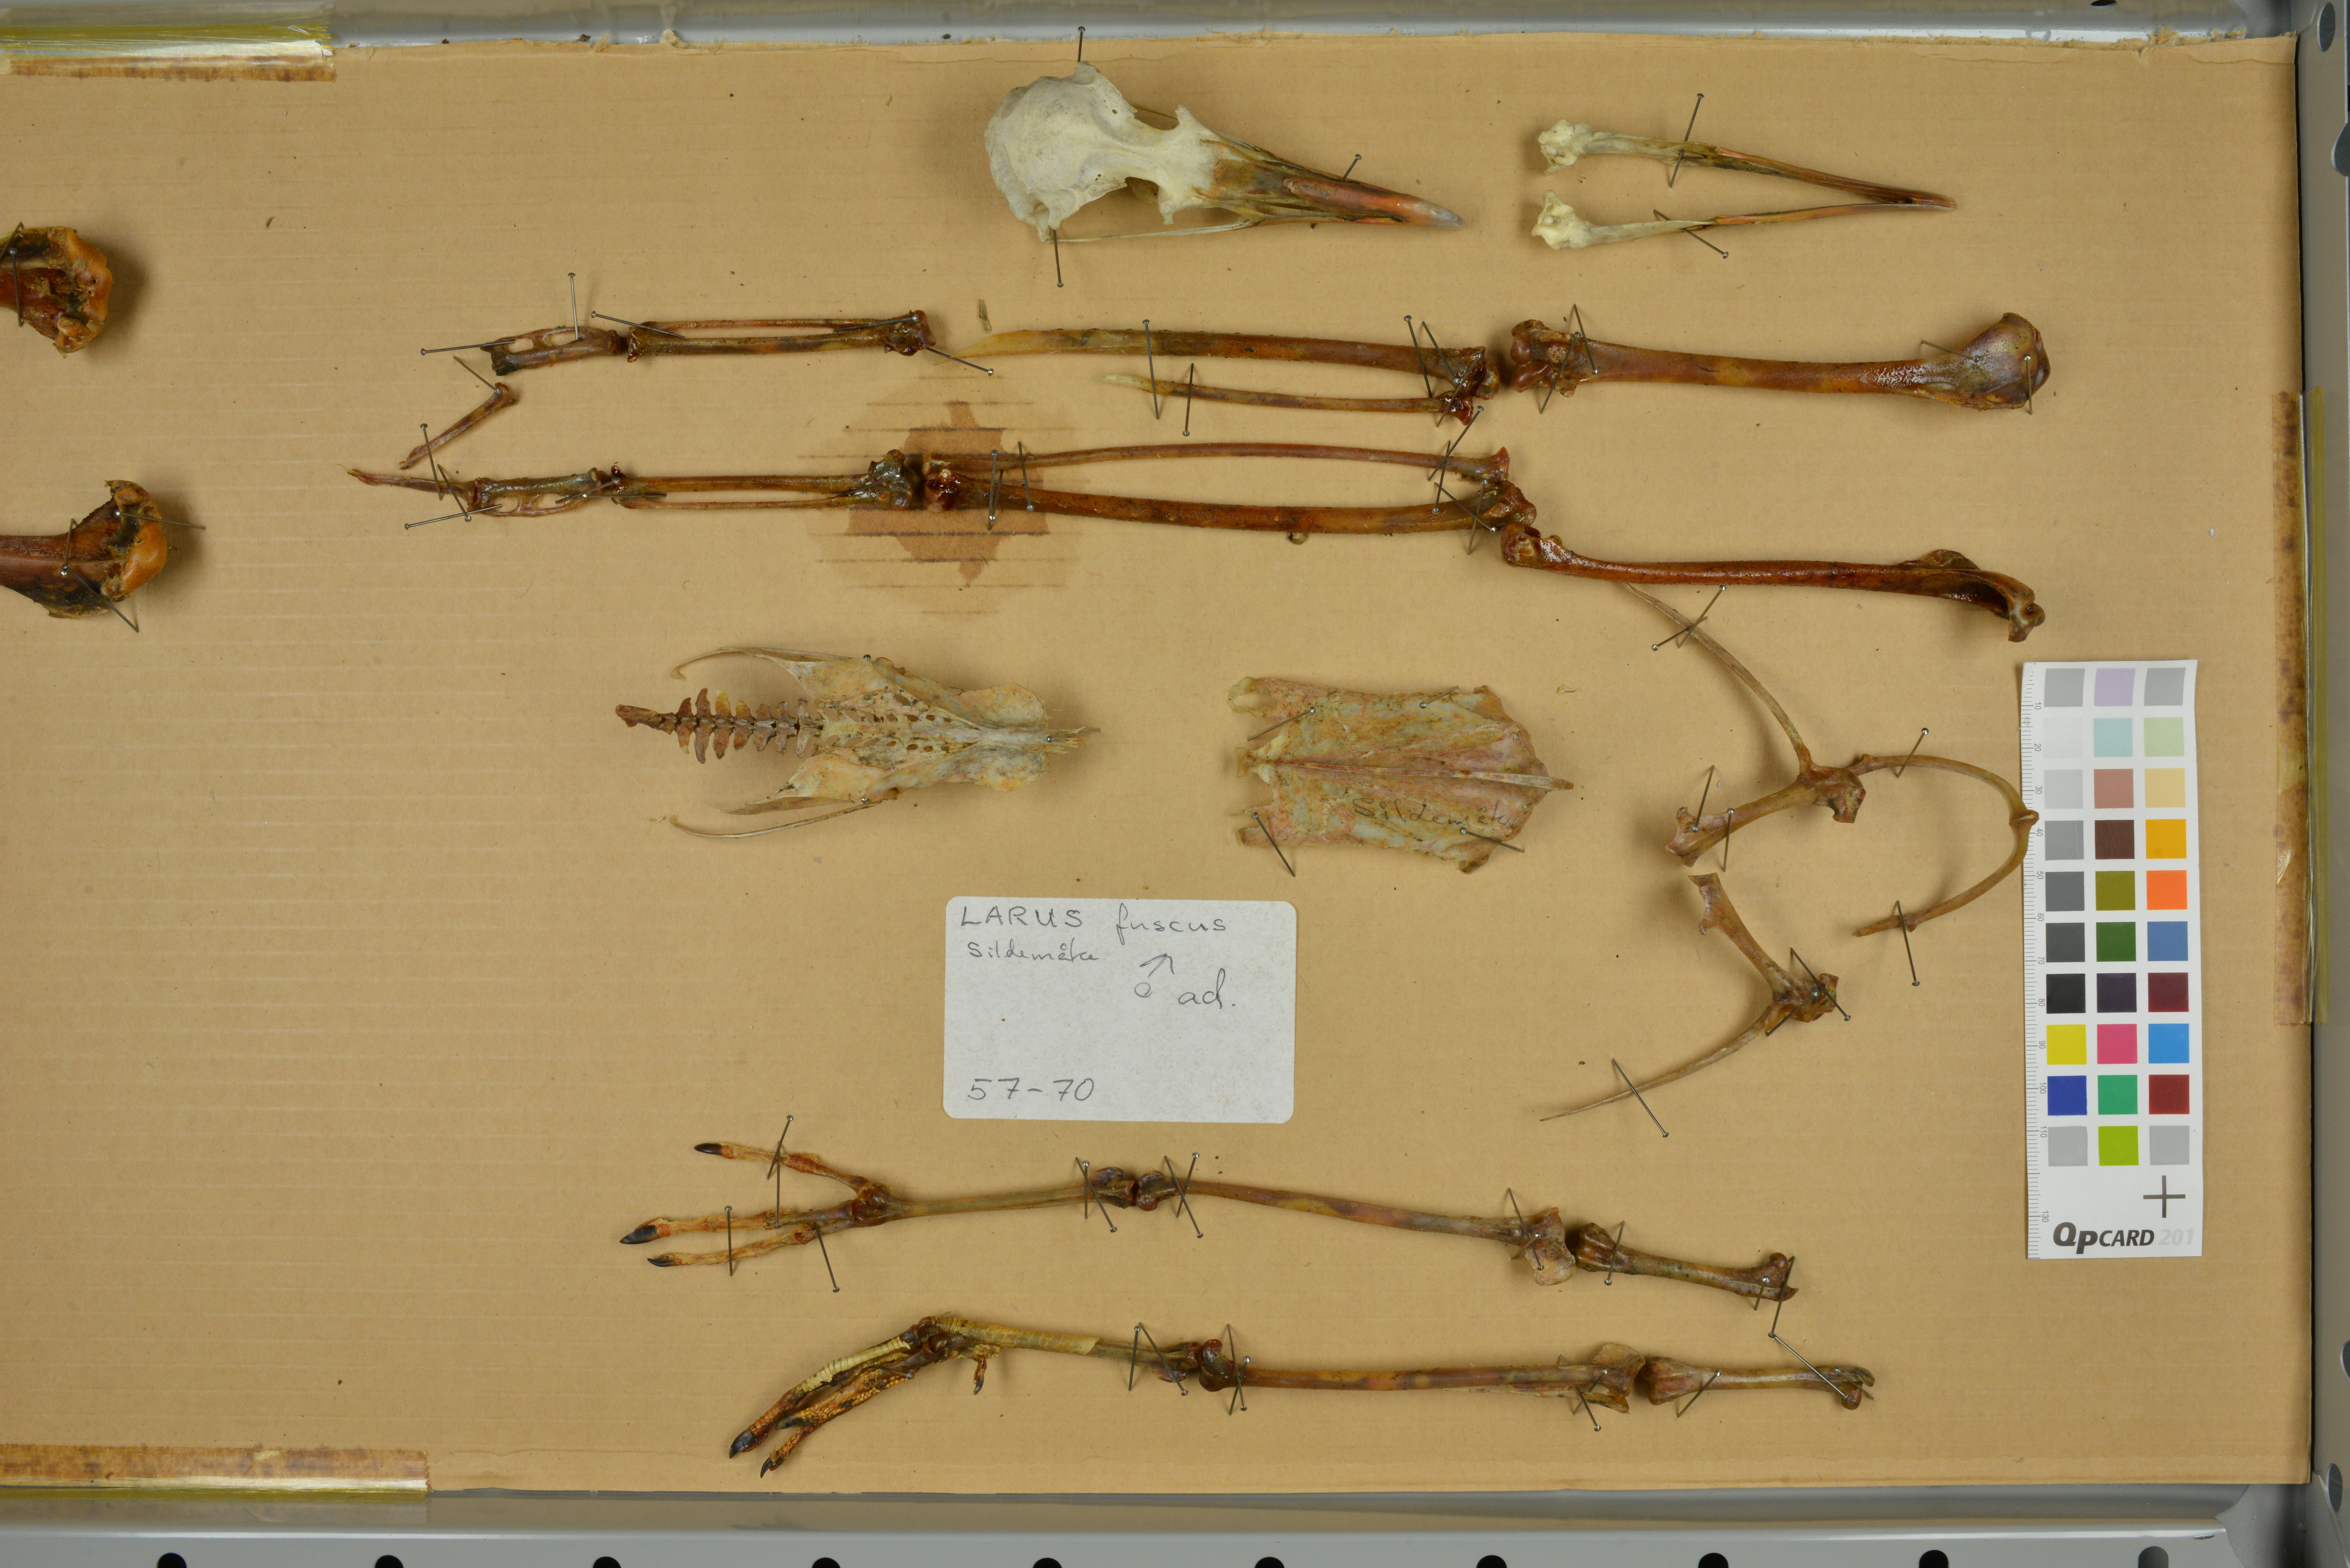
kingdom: Animalia
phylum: Chordata
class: Aves
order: Charadriiformes
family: Laridae
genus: Larus
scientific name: Larus fuscus
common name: Lesser black-backed gull
